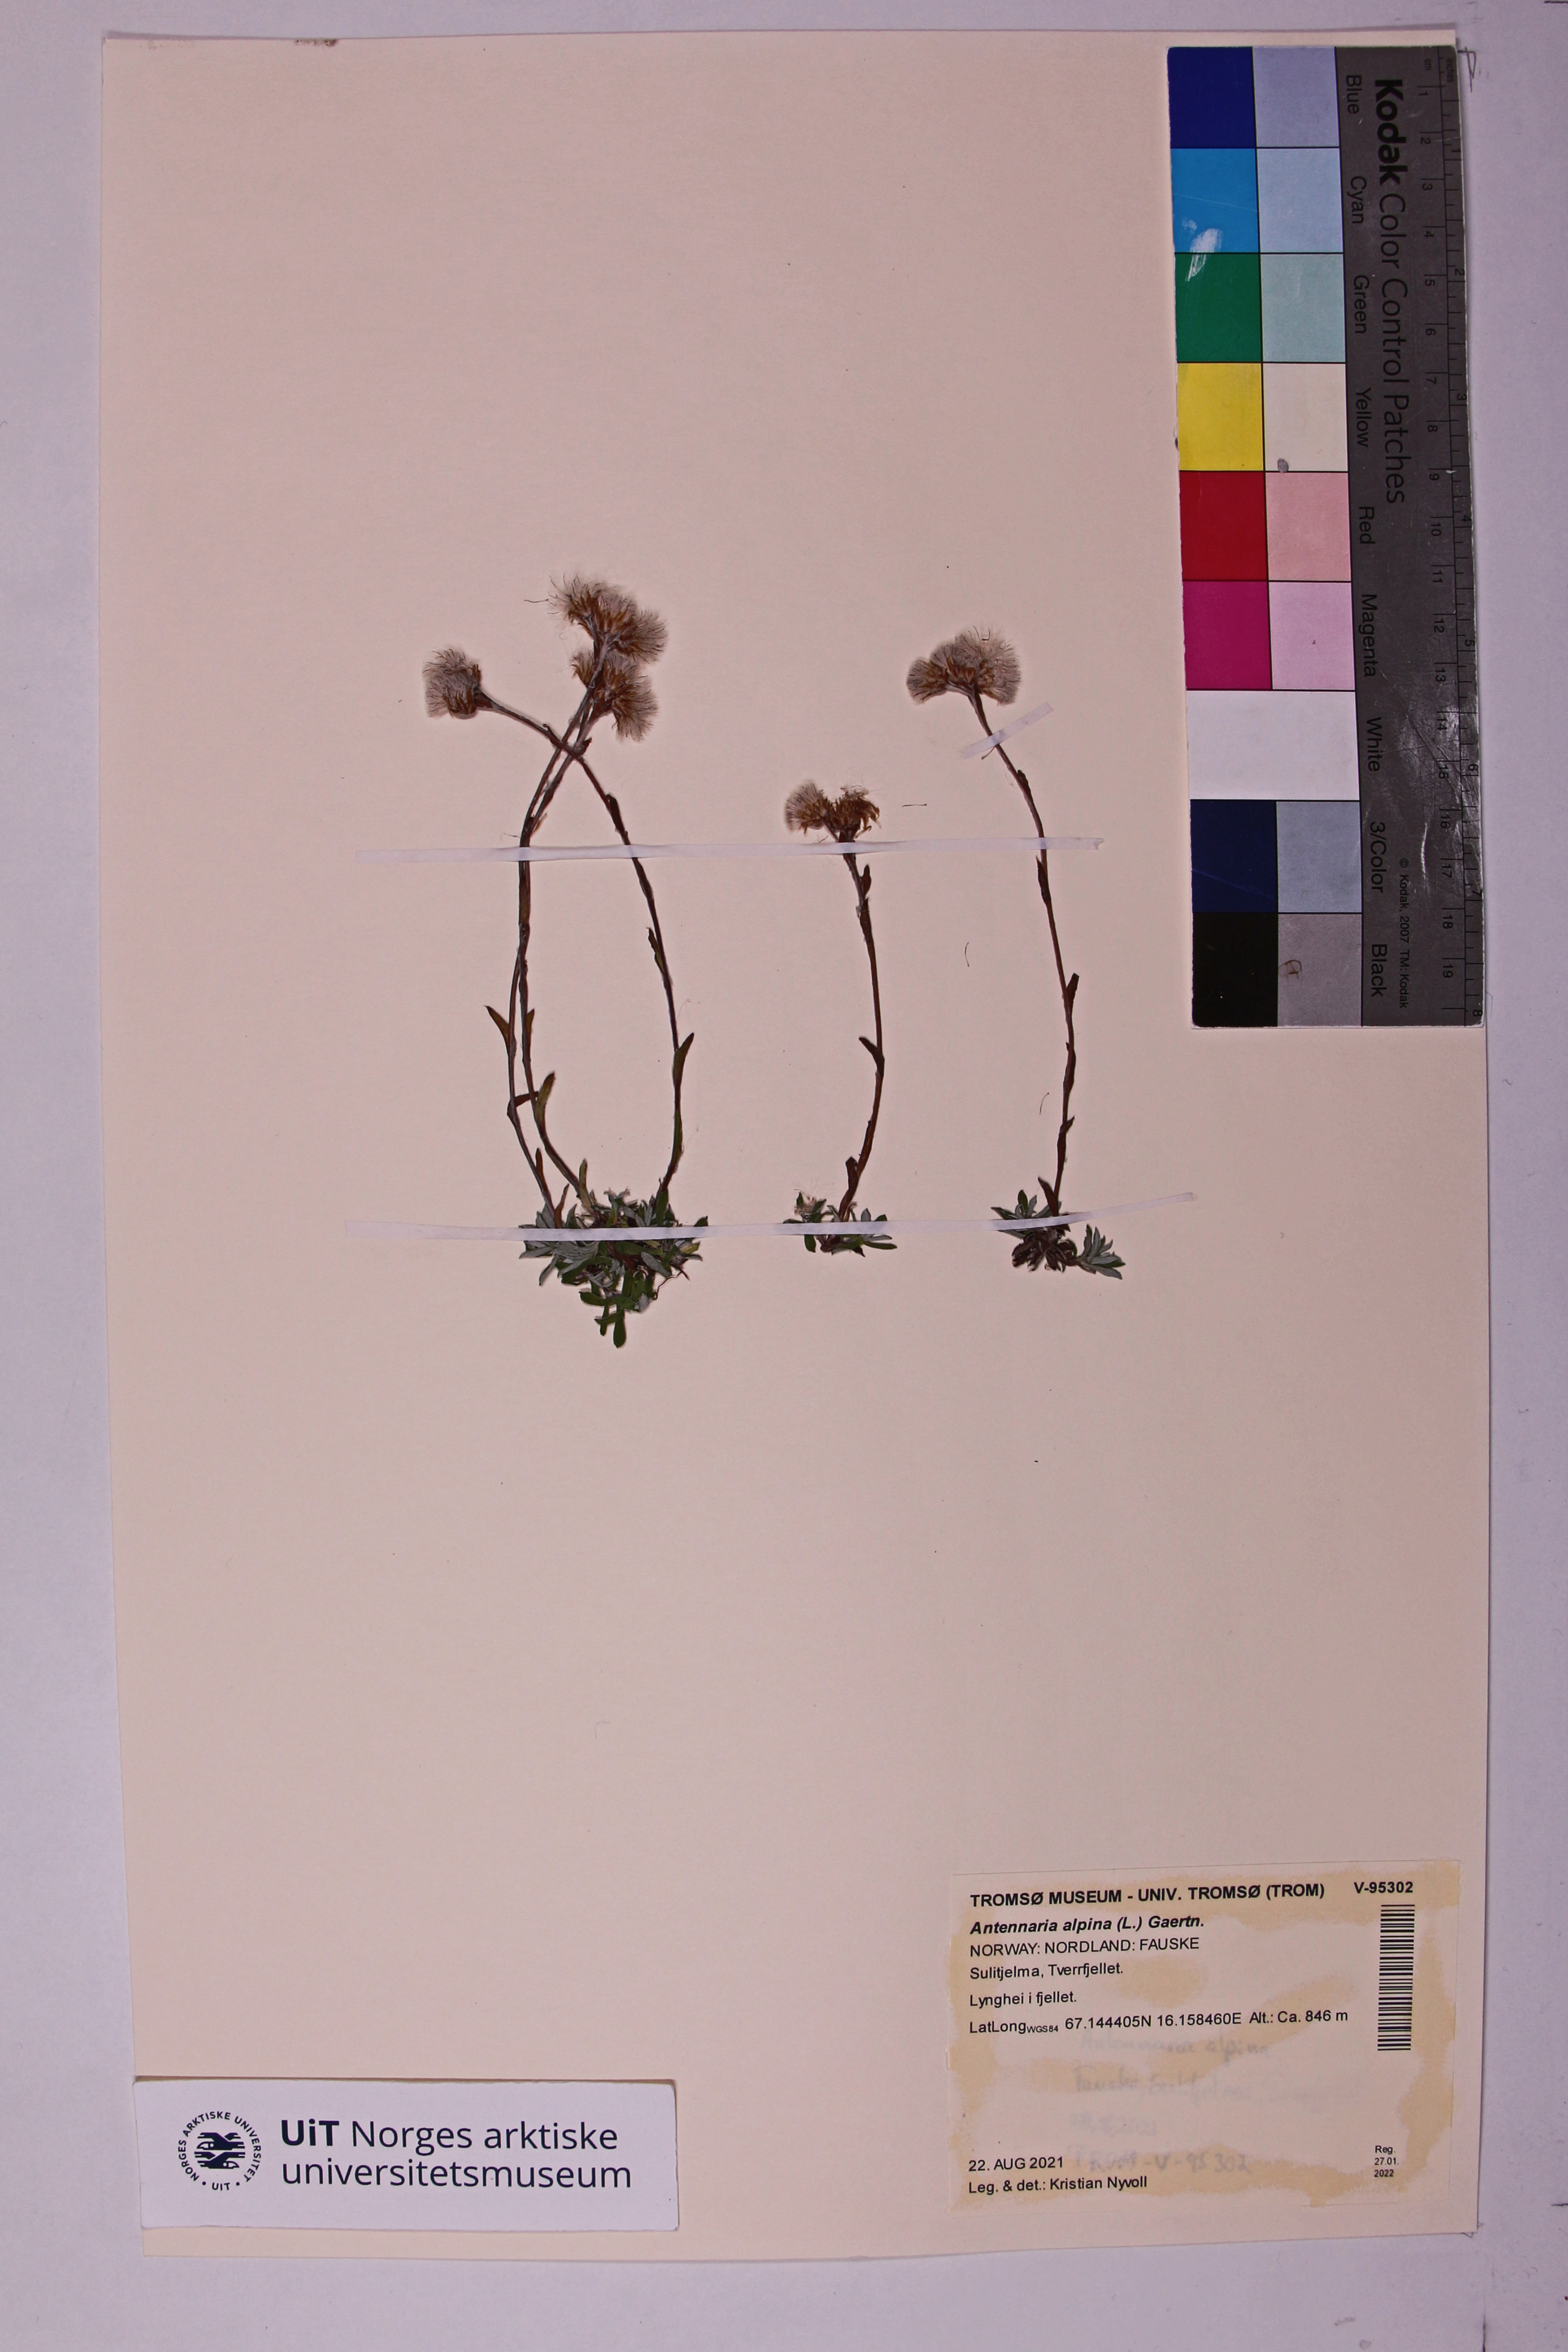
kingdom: Plantae
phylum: Tracheophyta
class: Magnoliopsida
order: Asterales
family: Asteraceae
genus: Antennaria
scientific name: Antennaria alpina
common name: Alpine pussytoes
